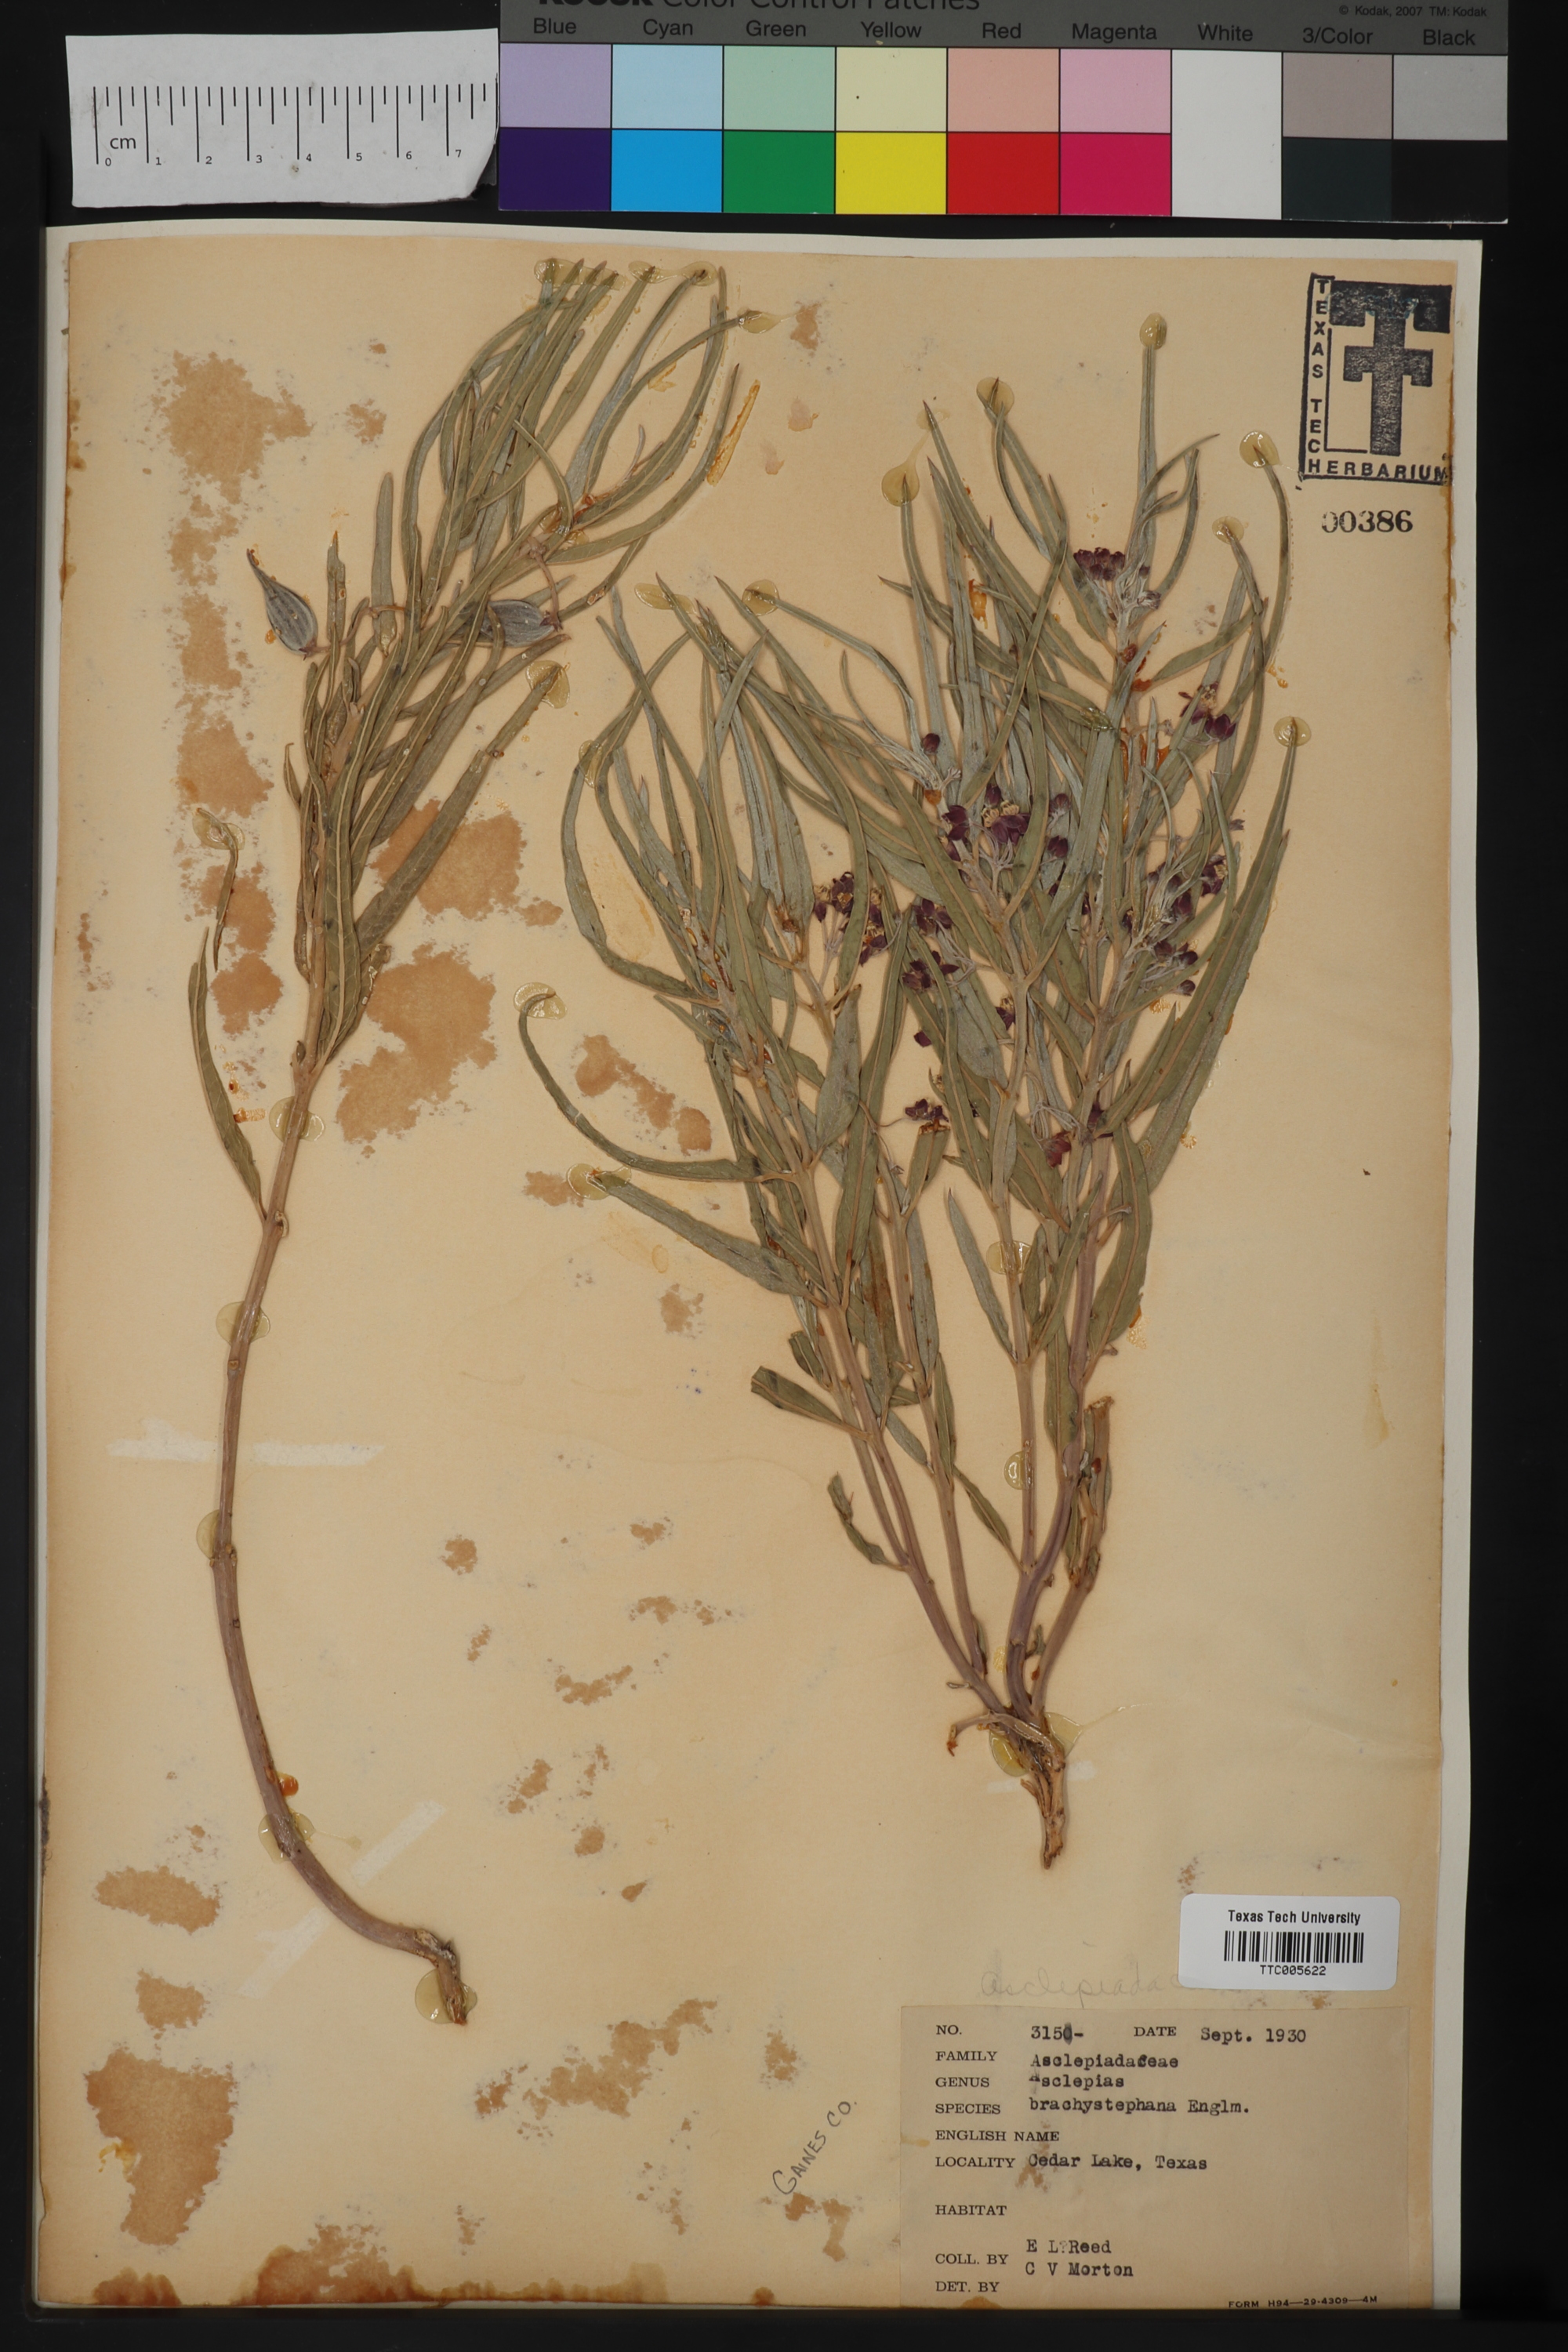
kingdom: Plantae
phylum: Tracheophyta
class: Magnoliopsida
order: Gentianales
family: Apocynaceae
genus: Asclepias
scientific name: Asclepias brachystephana
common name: Shortcrown milkweed
